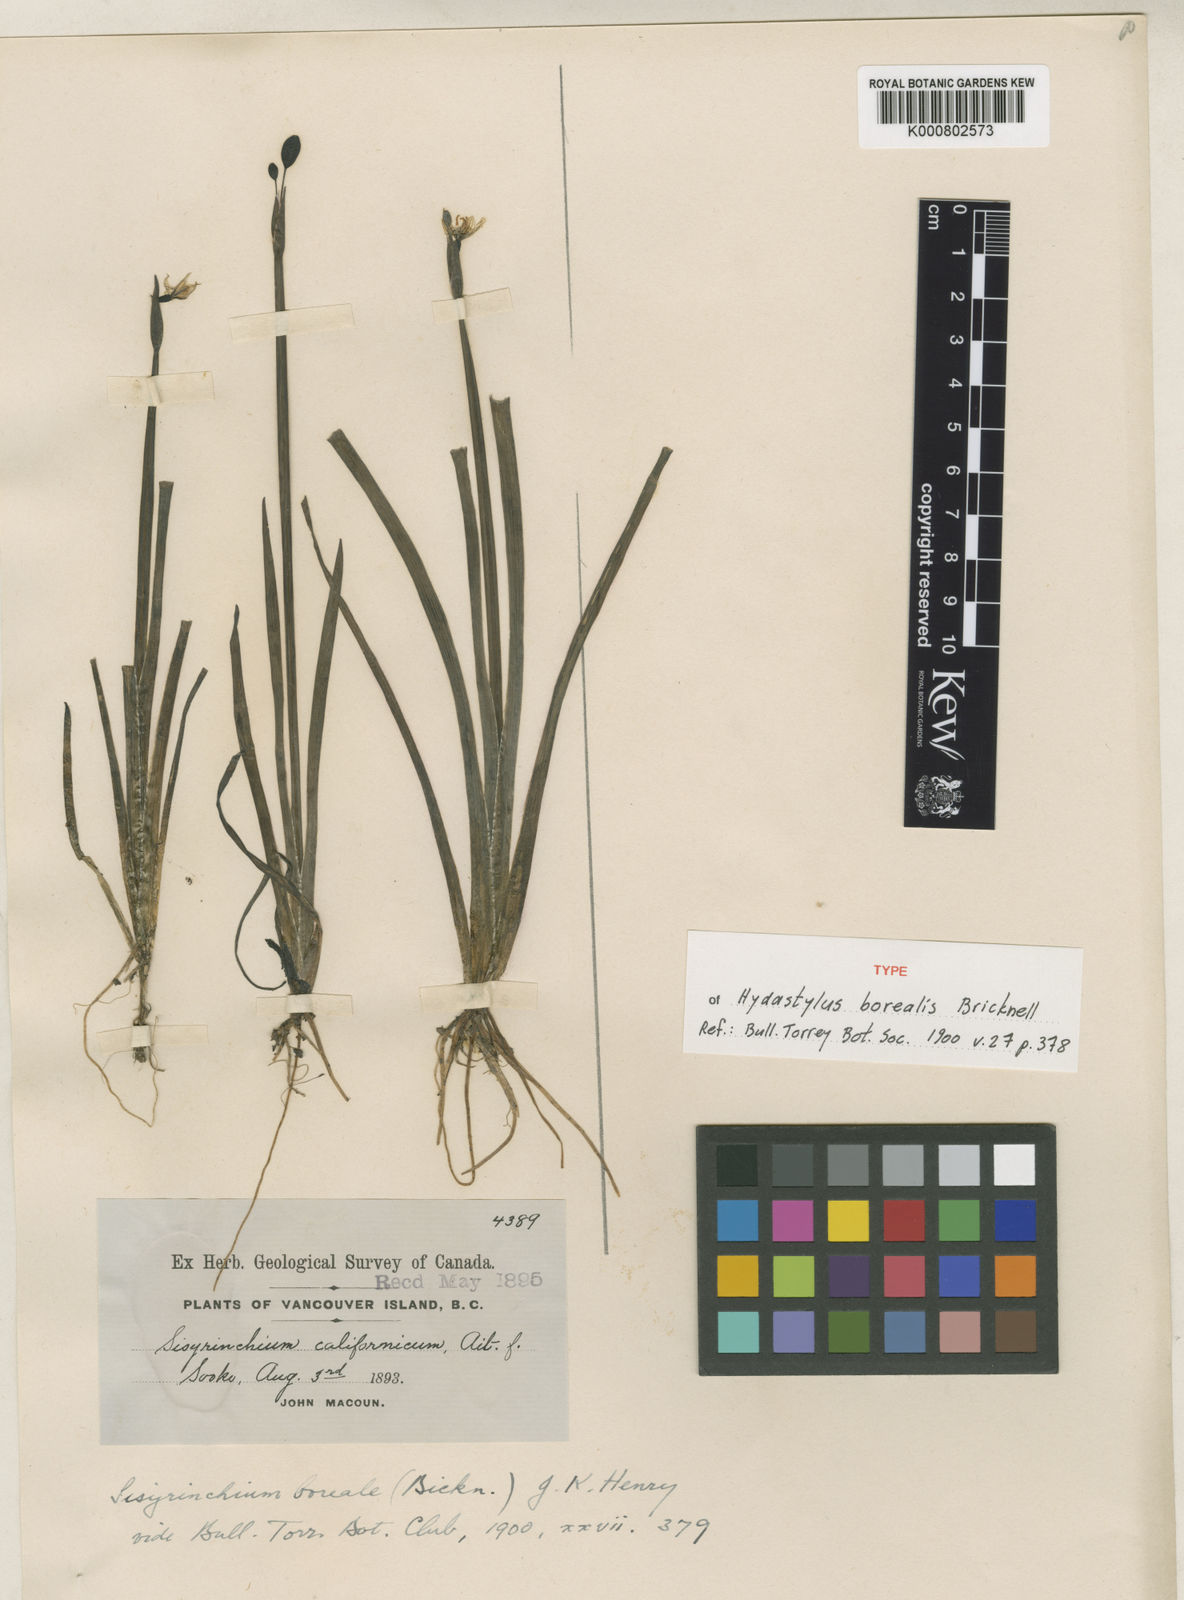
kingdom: Plantae
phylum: Tracheophyta
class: Liliopsida
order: Asparagales
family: Iridaceae
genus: Sisyrinchium
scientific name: Sisyrinchium californicum
